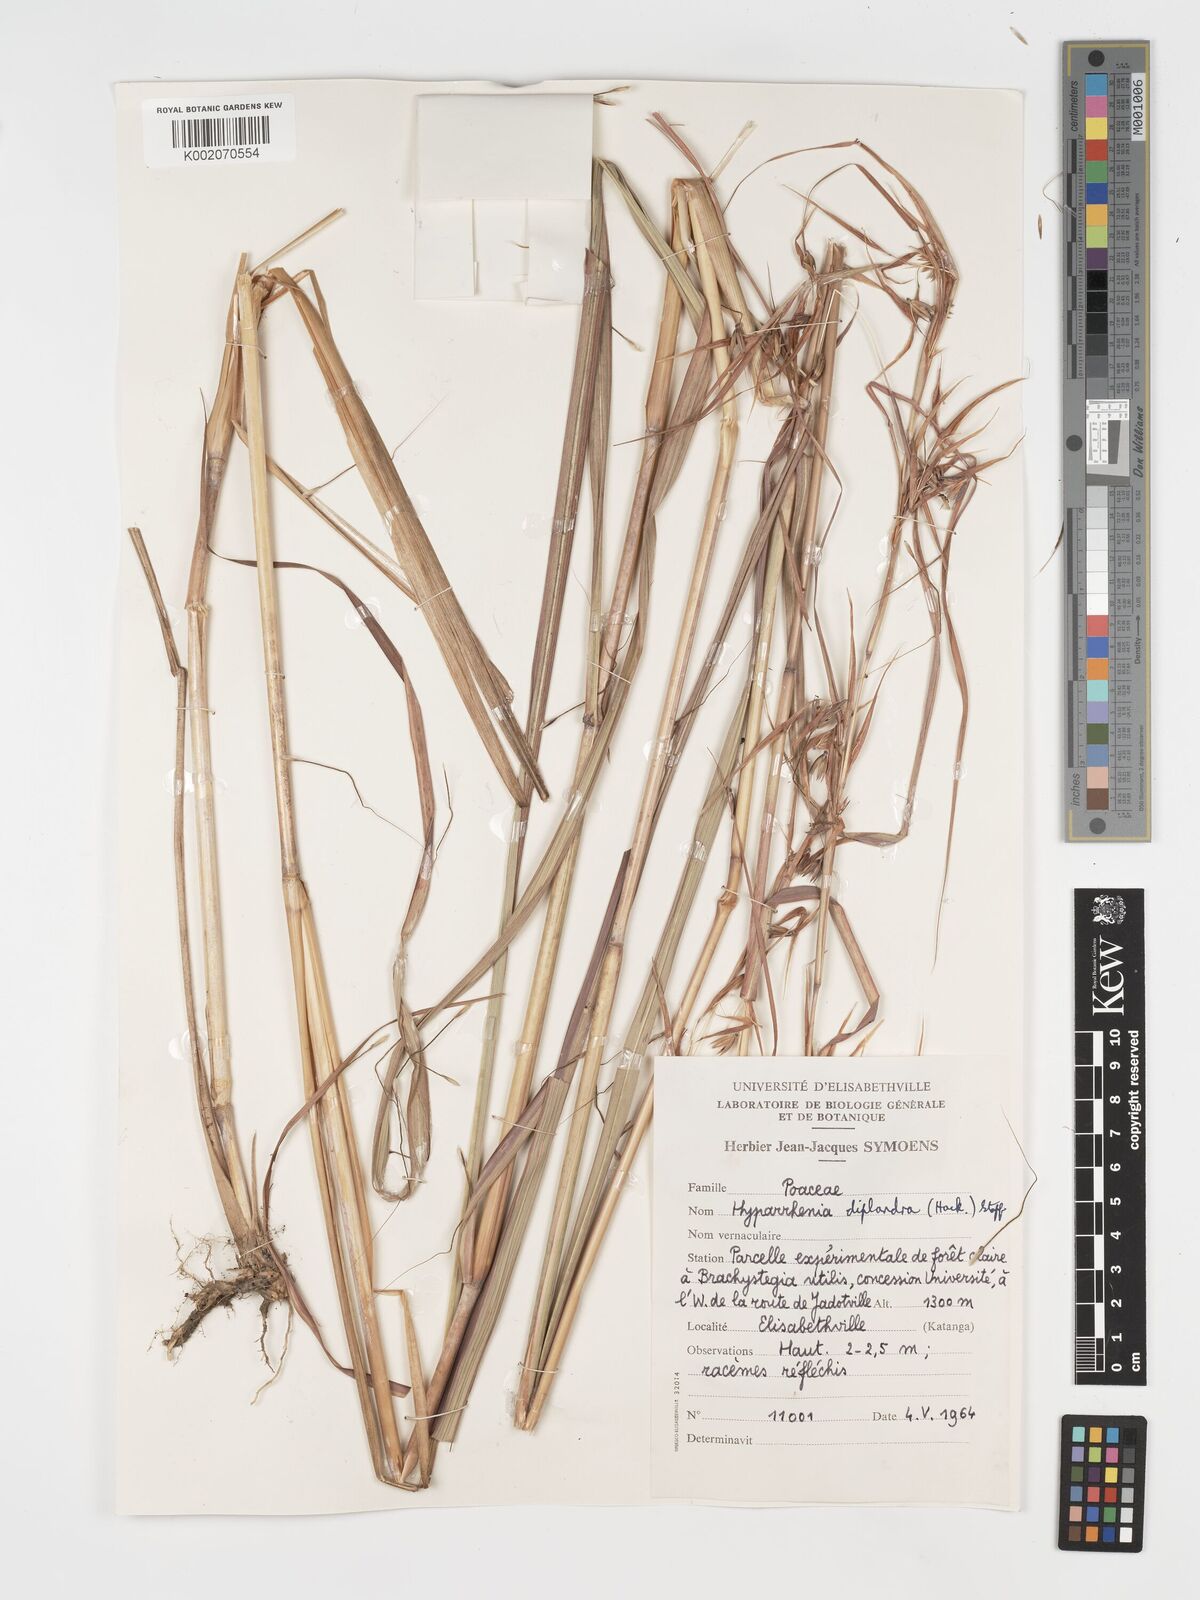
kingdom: Plantae
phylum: Tracheophyta
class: Liliopsida
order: Poales
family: Poaceae
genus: Hyparrhenia
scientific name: Hyparrhenia diplandra
